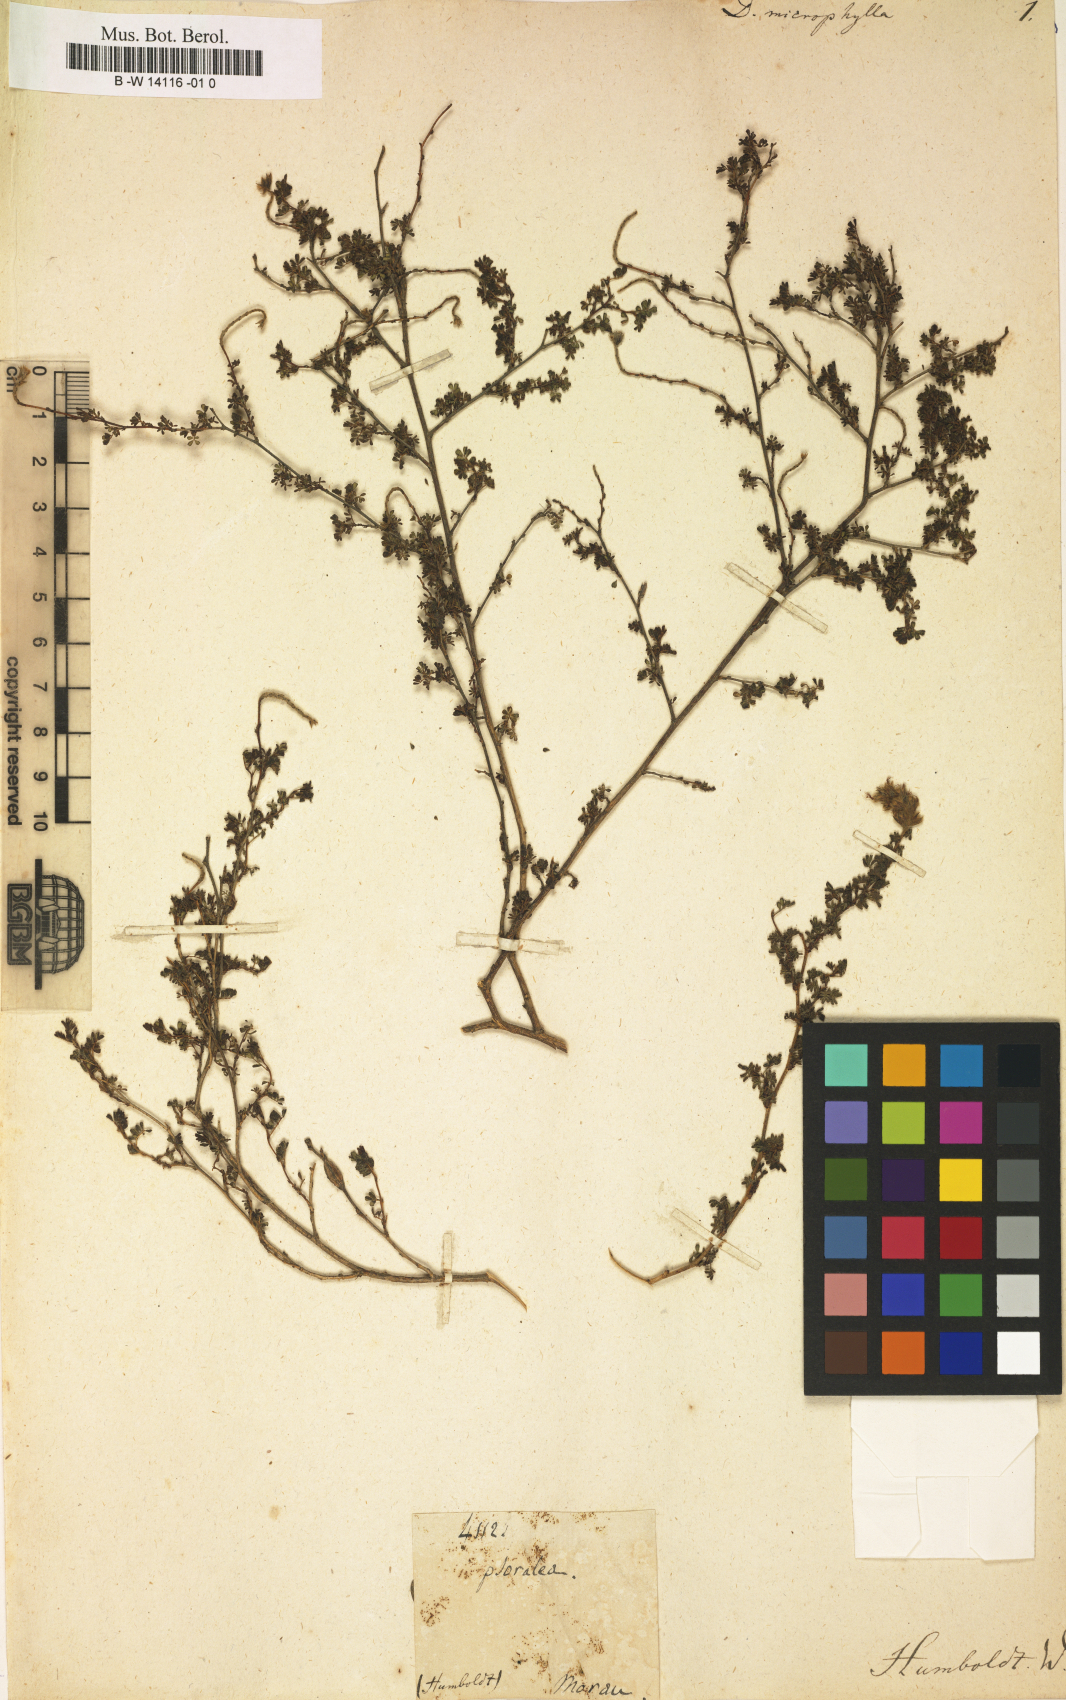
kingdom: Plantae
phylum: Tracheophyta
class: Magnoliopsida
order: Fabales
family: Fabaceae
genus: Dalea
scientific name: Dalea carthagenensis
